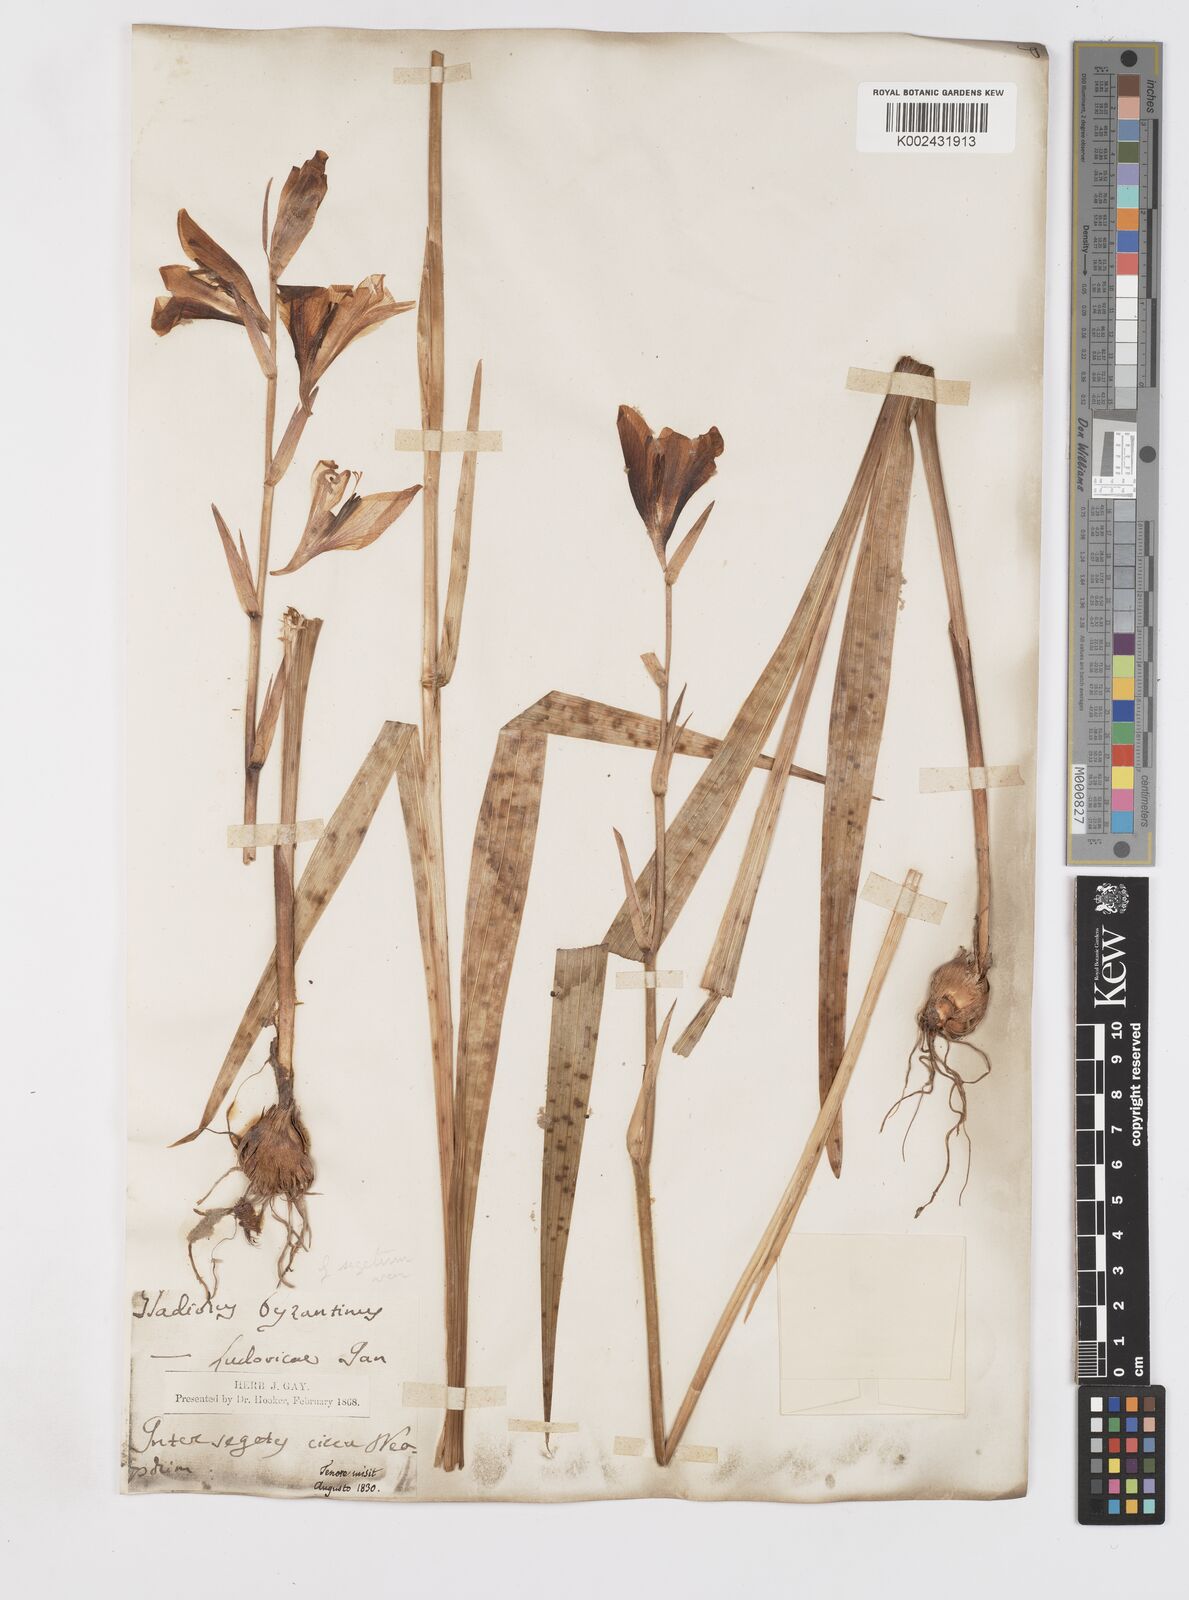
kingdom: Plantae
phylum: Tracheophyta
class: Liliopsida
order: Asparagales
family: Iridaceae
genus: Gladiolus
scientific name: Gladiolus italicus
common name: Field gladiolus
